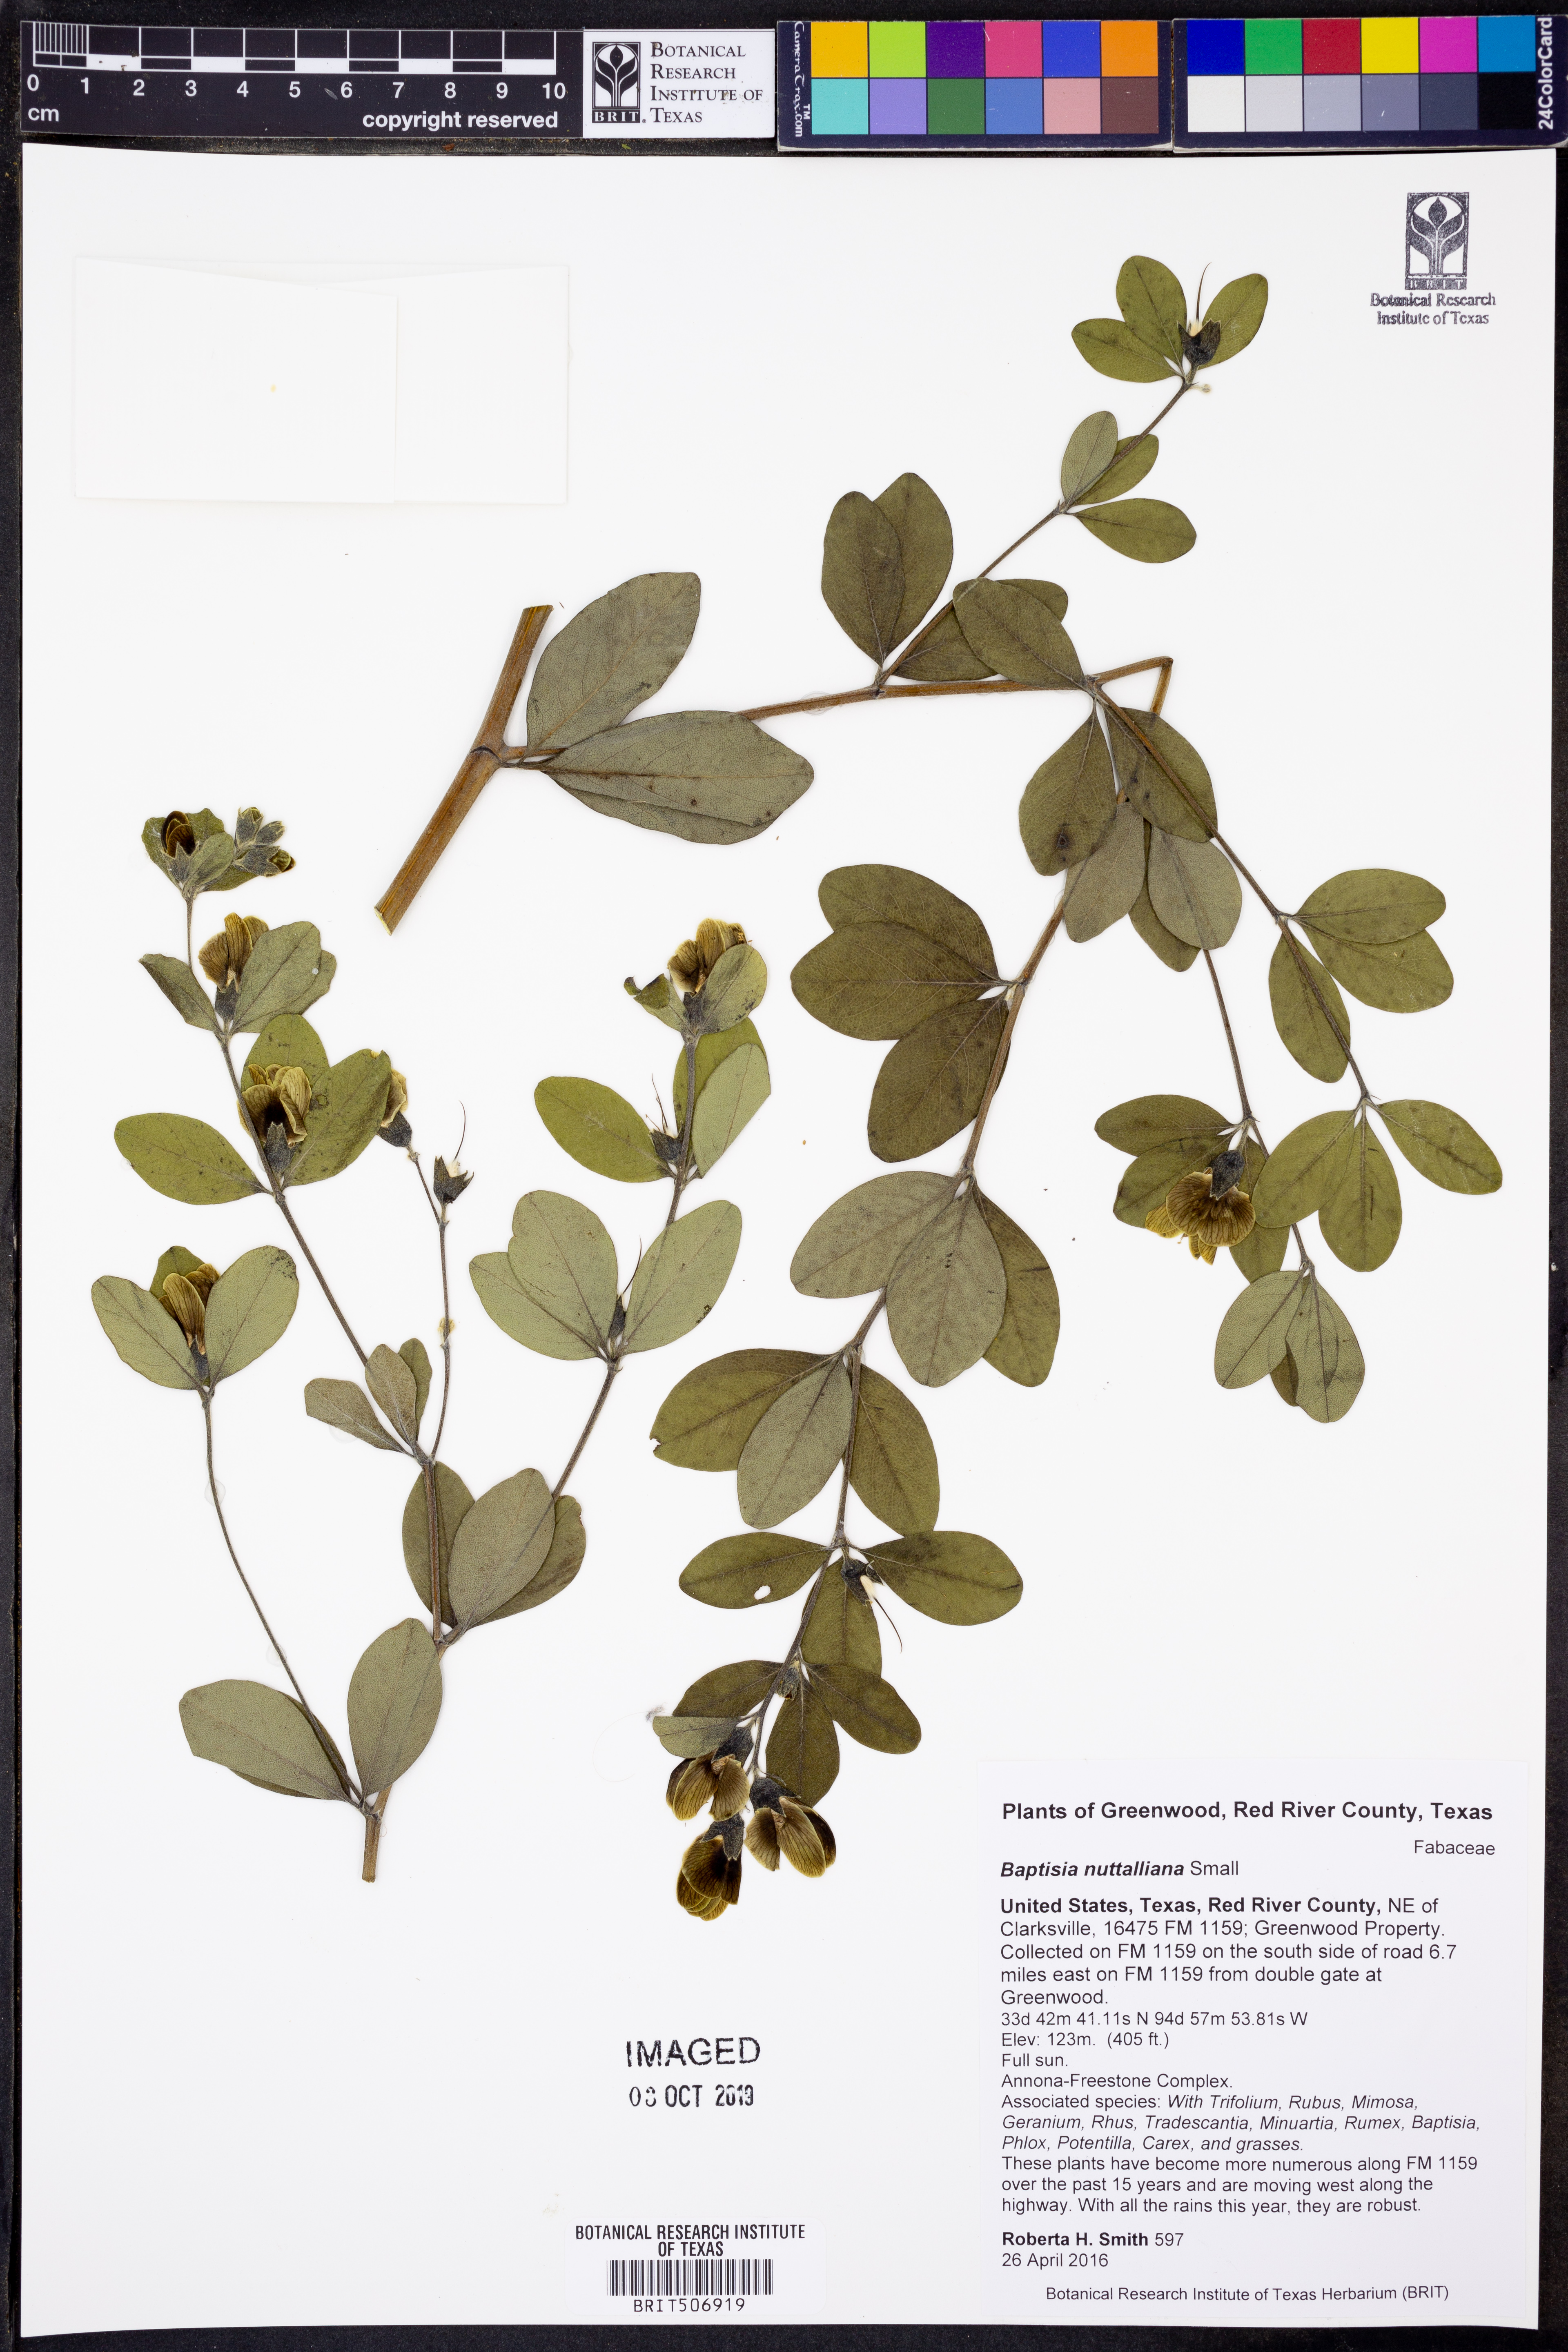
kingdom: Plantae
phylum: Tracheophyta
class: Magnoliopsida
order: Fabales
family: Fabaceae
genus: Baptisia
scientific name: Baptisia nuttalliana
